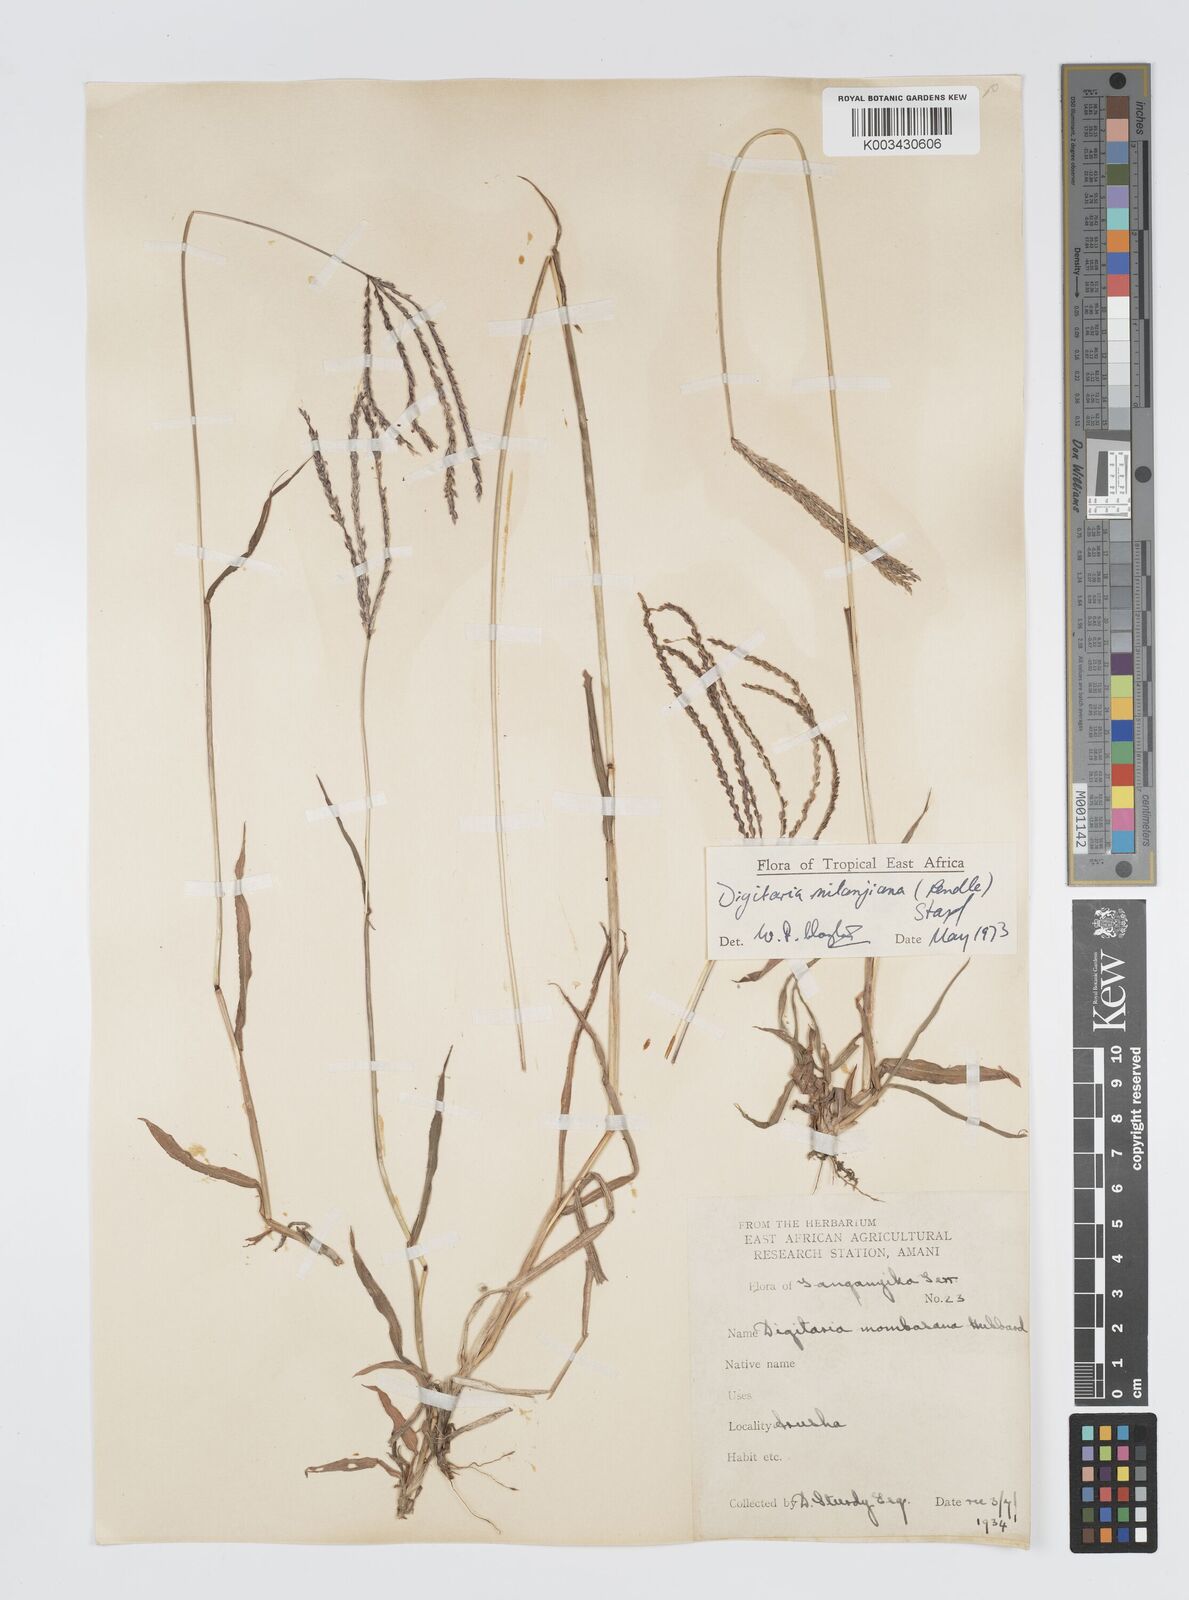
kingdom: Plantae
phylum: Tracheophyta
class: Liliopsida
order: Poales
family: Poaceae
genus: Digitaria
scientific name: Digitaria milanjiana
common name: Madagascar crabgrass
